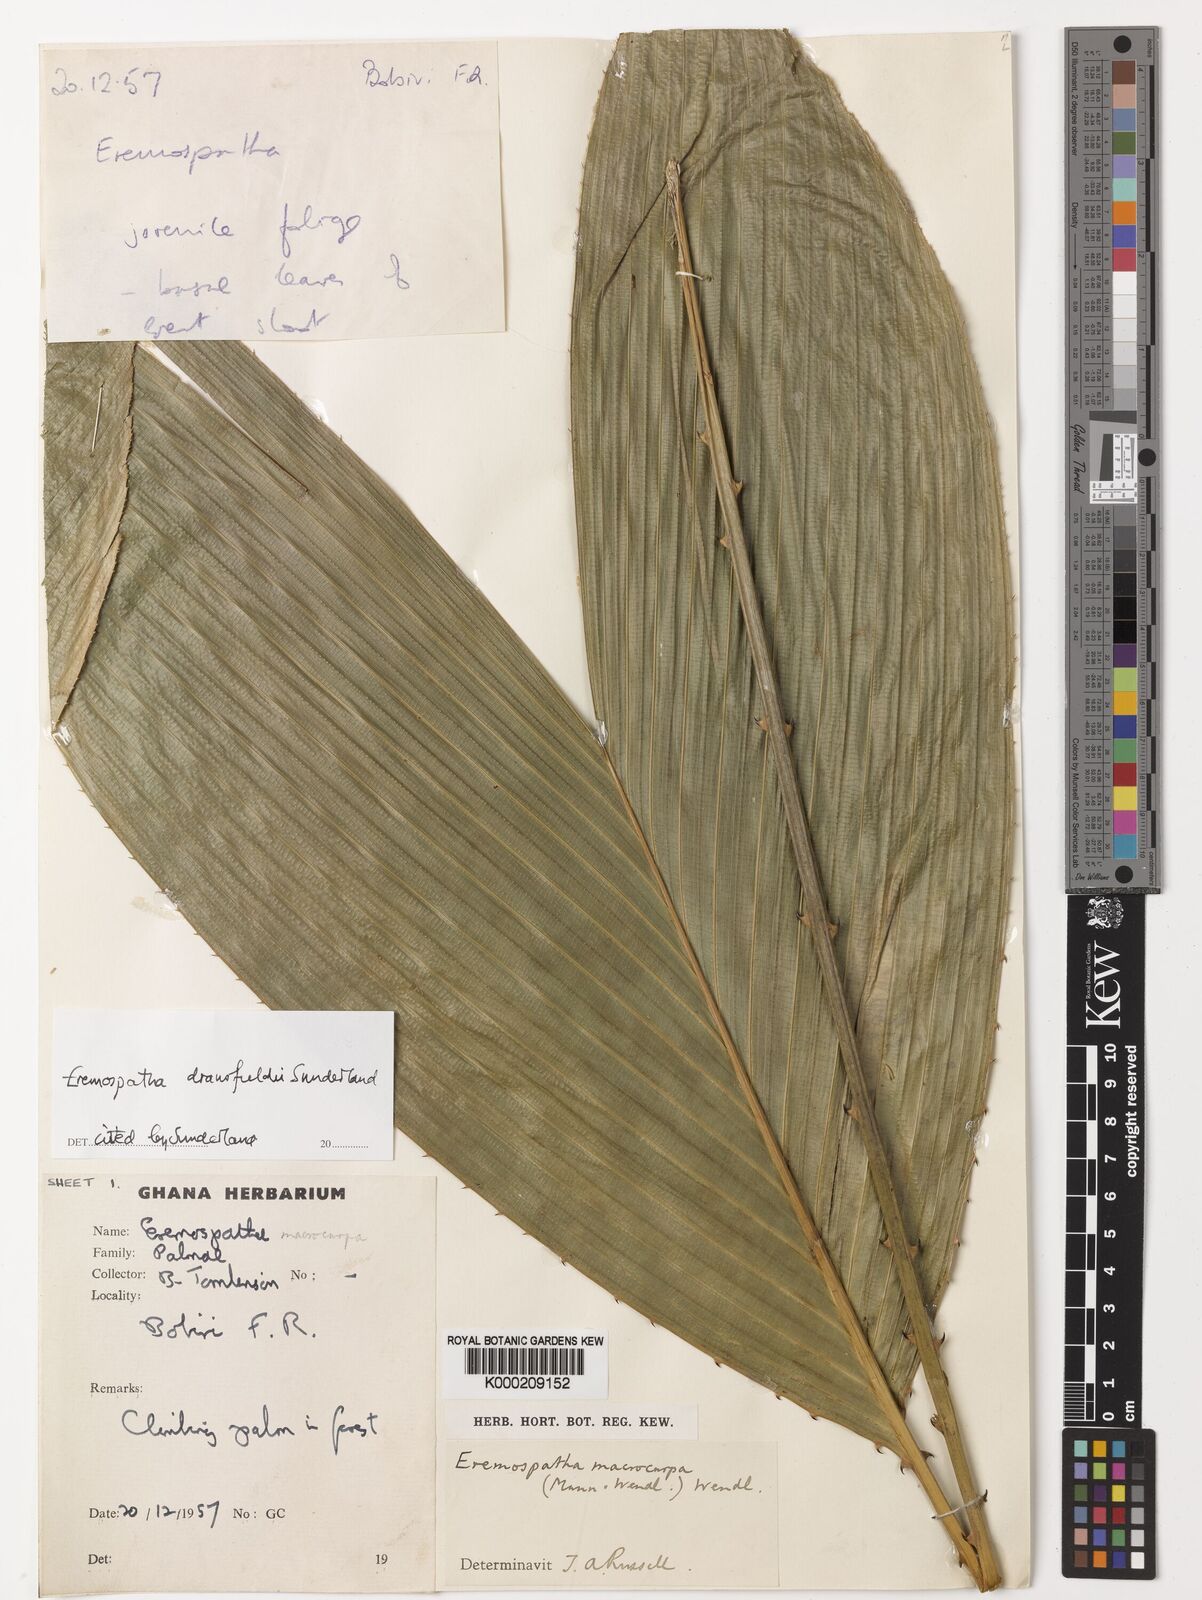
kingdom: Plantae
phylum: Tracheophyta
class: Liliopsida
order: Arecales
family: Arecaceae
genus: Eremospatha
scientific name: Eremospatha dransfieldii
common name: Rattan
